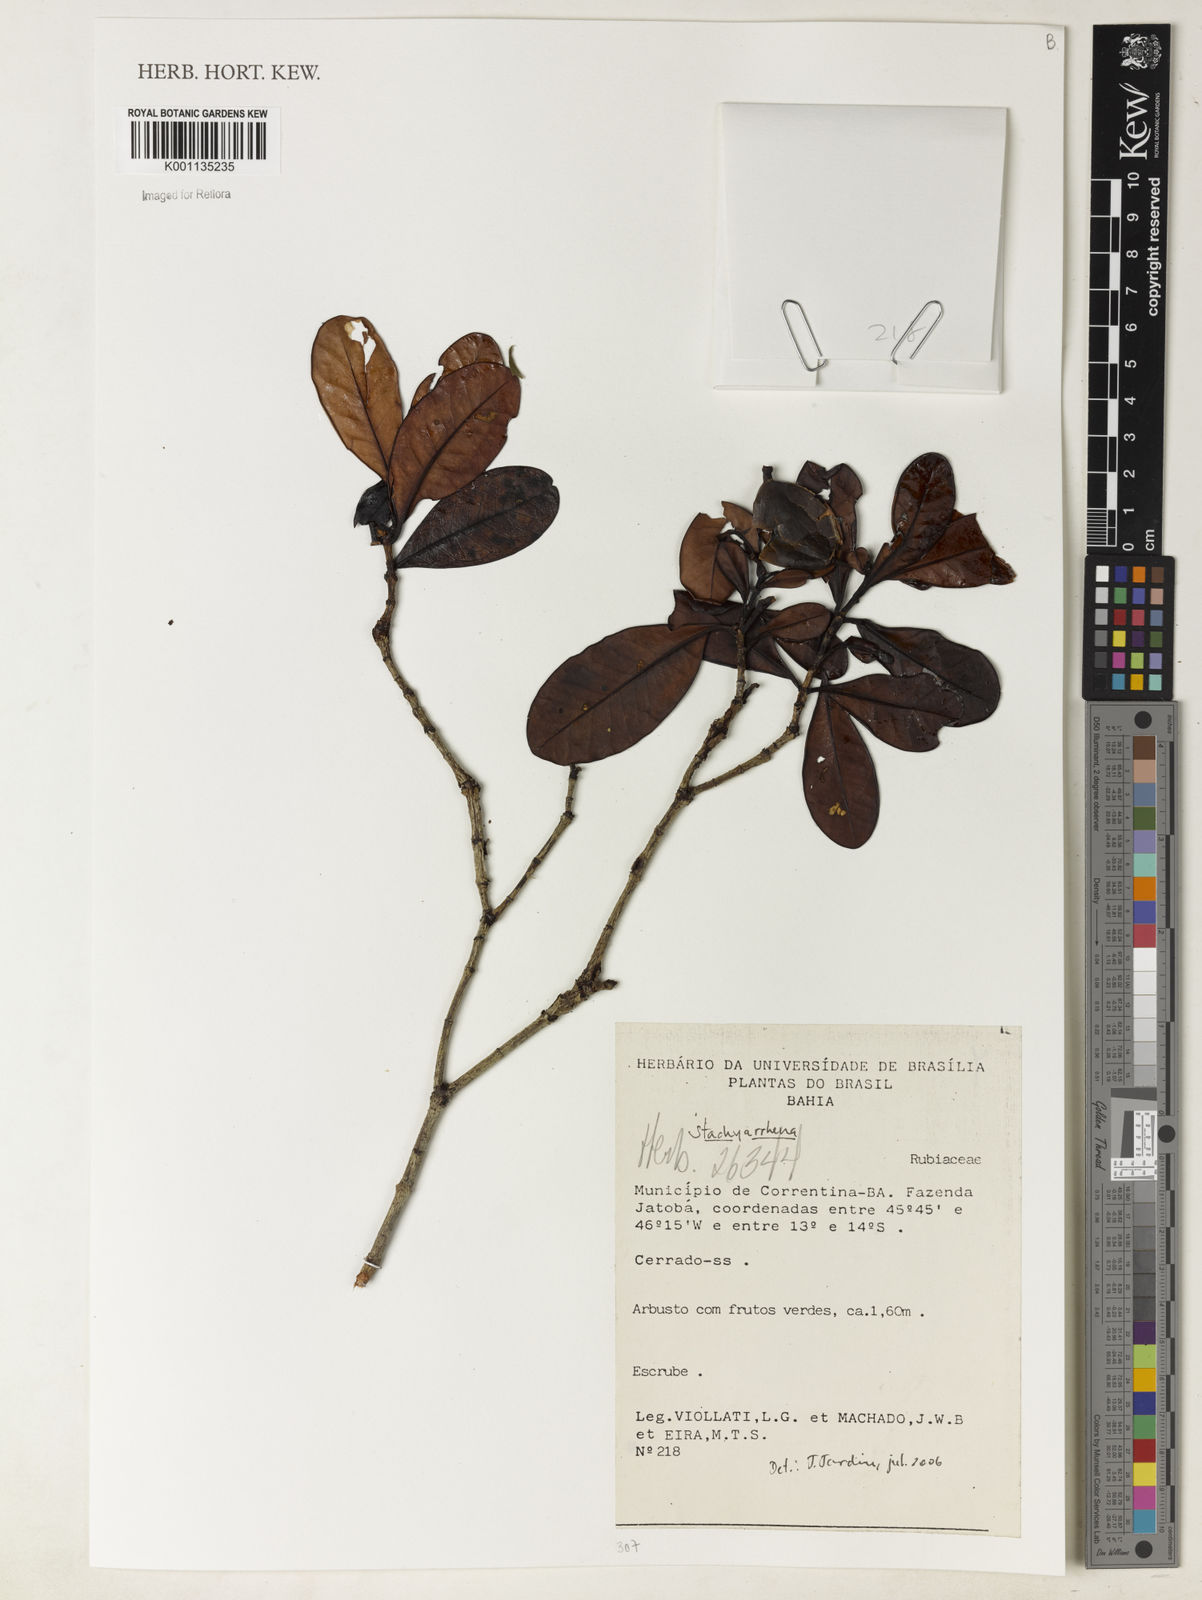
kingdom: Plantae
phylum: Tracheophyta
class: Magnoliopsida
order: Gentianales
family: Rubiaceae
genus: Stachyarrhena
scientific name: Stachyarrhena
